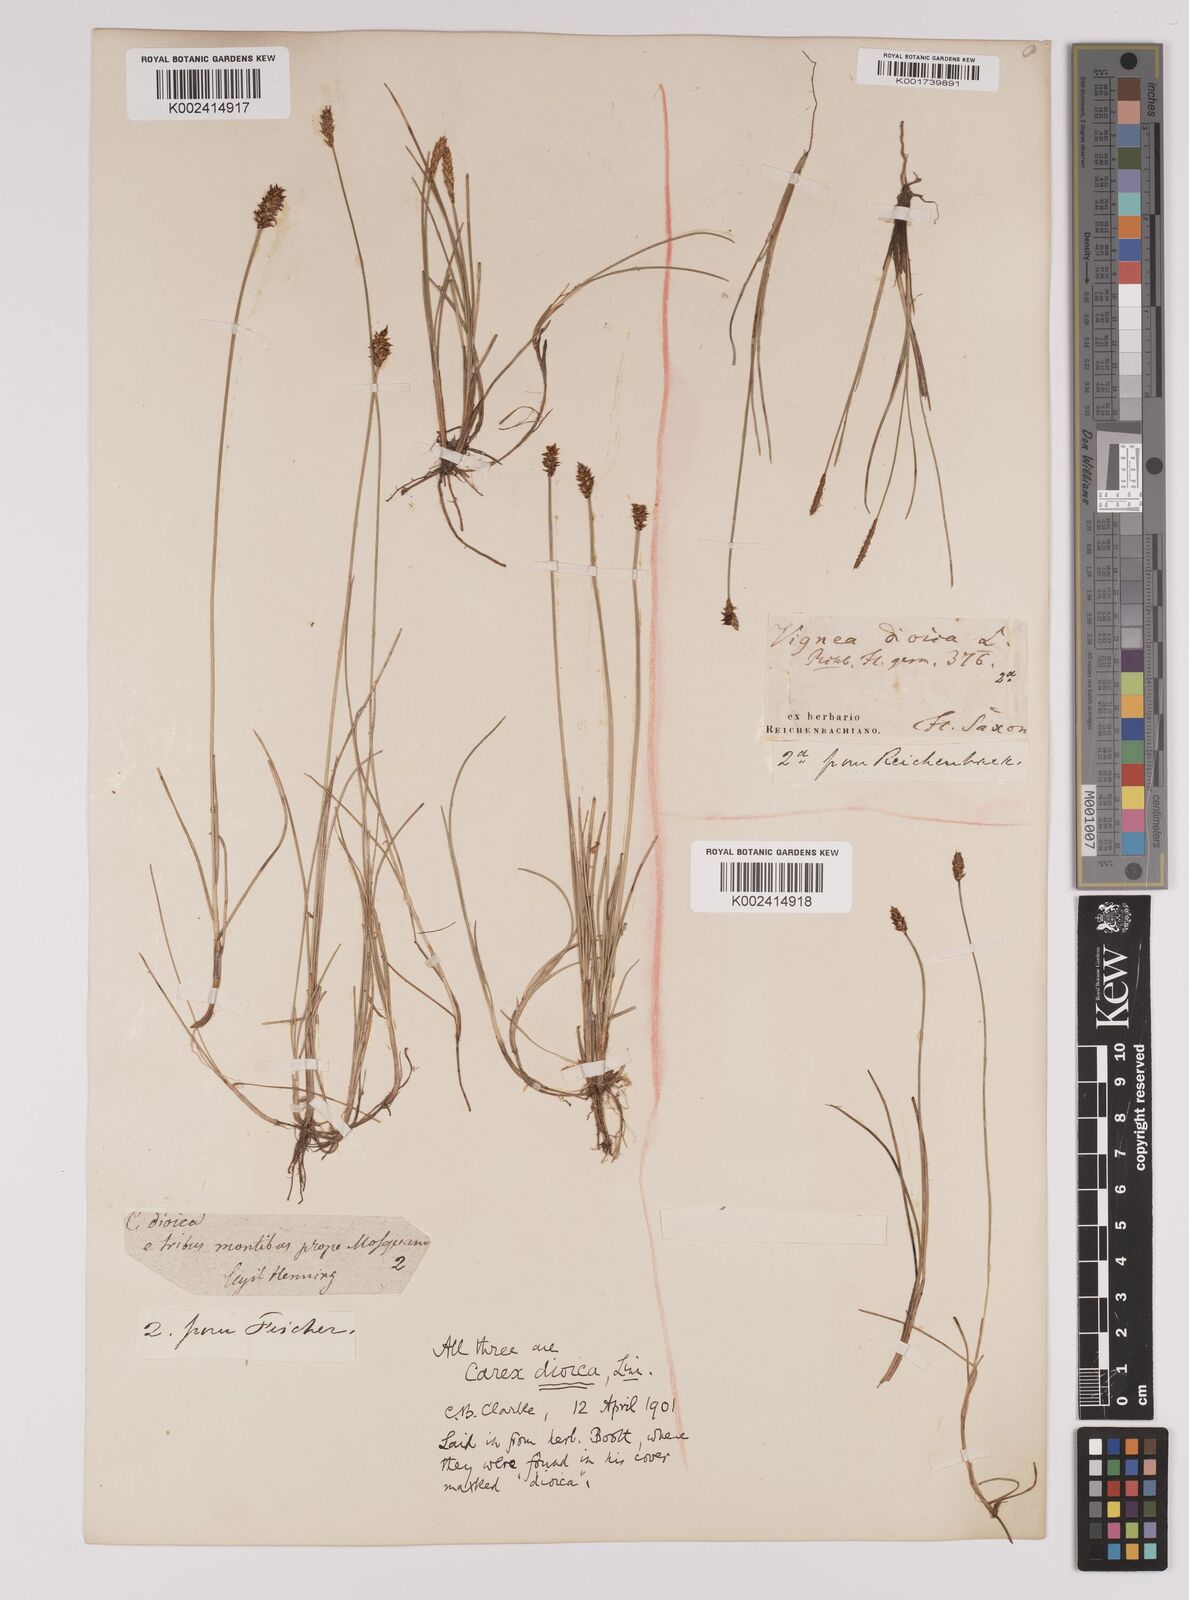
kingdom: Plantae
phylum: Tracheophyta
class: Liliopsida
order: Poales
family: Cyperaceae
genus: Carex
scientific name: Carex dioica
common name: Dioecious sedge
